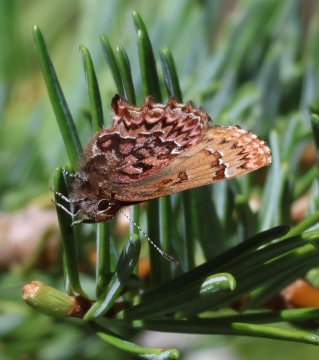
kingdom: Animalia
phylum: Arthropoda
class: Insecta
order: Lepidoptera
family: Lycaenidae
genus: Incisalia
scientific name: Incisalia eryphon
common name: Western Pine Elfin
